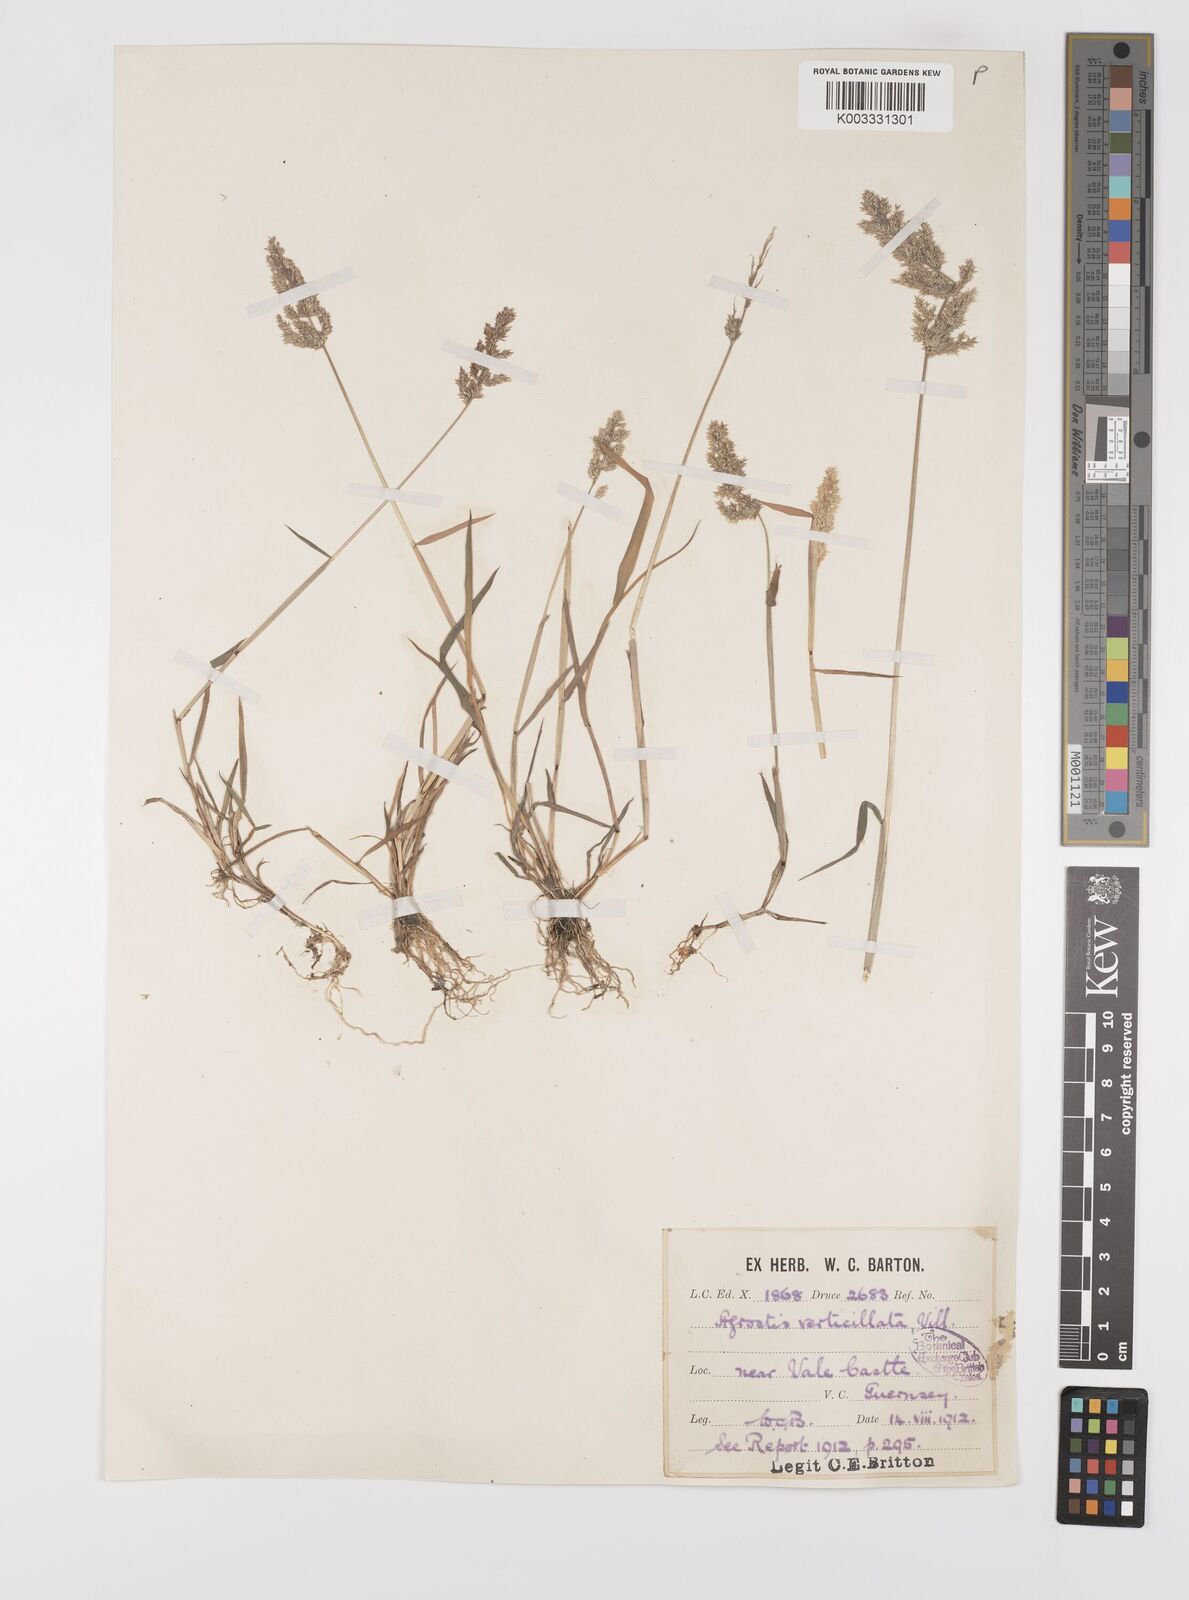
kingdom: Plantae
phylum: Tracheophyta
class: Liliopsida
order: Poales
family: Poaceae
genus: Polypogon
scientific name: Polypogon viridis
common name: Water bent
